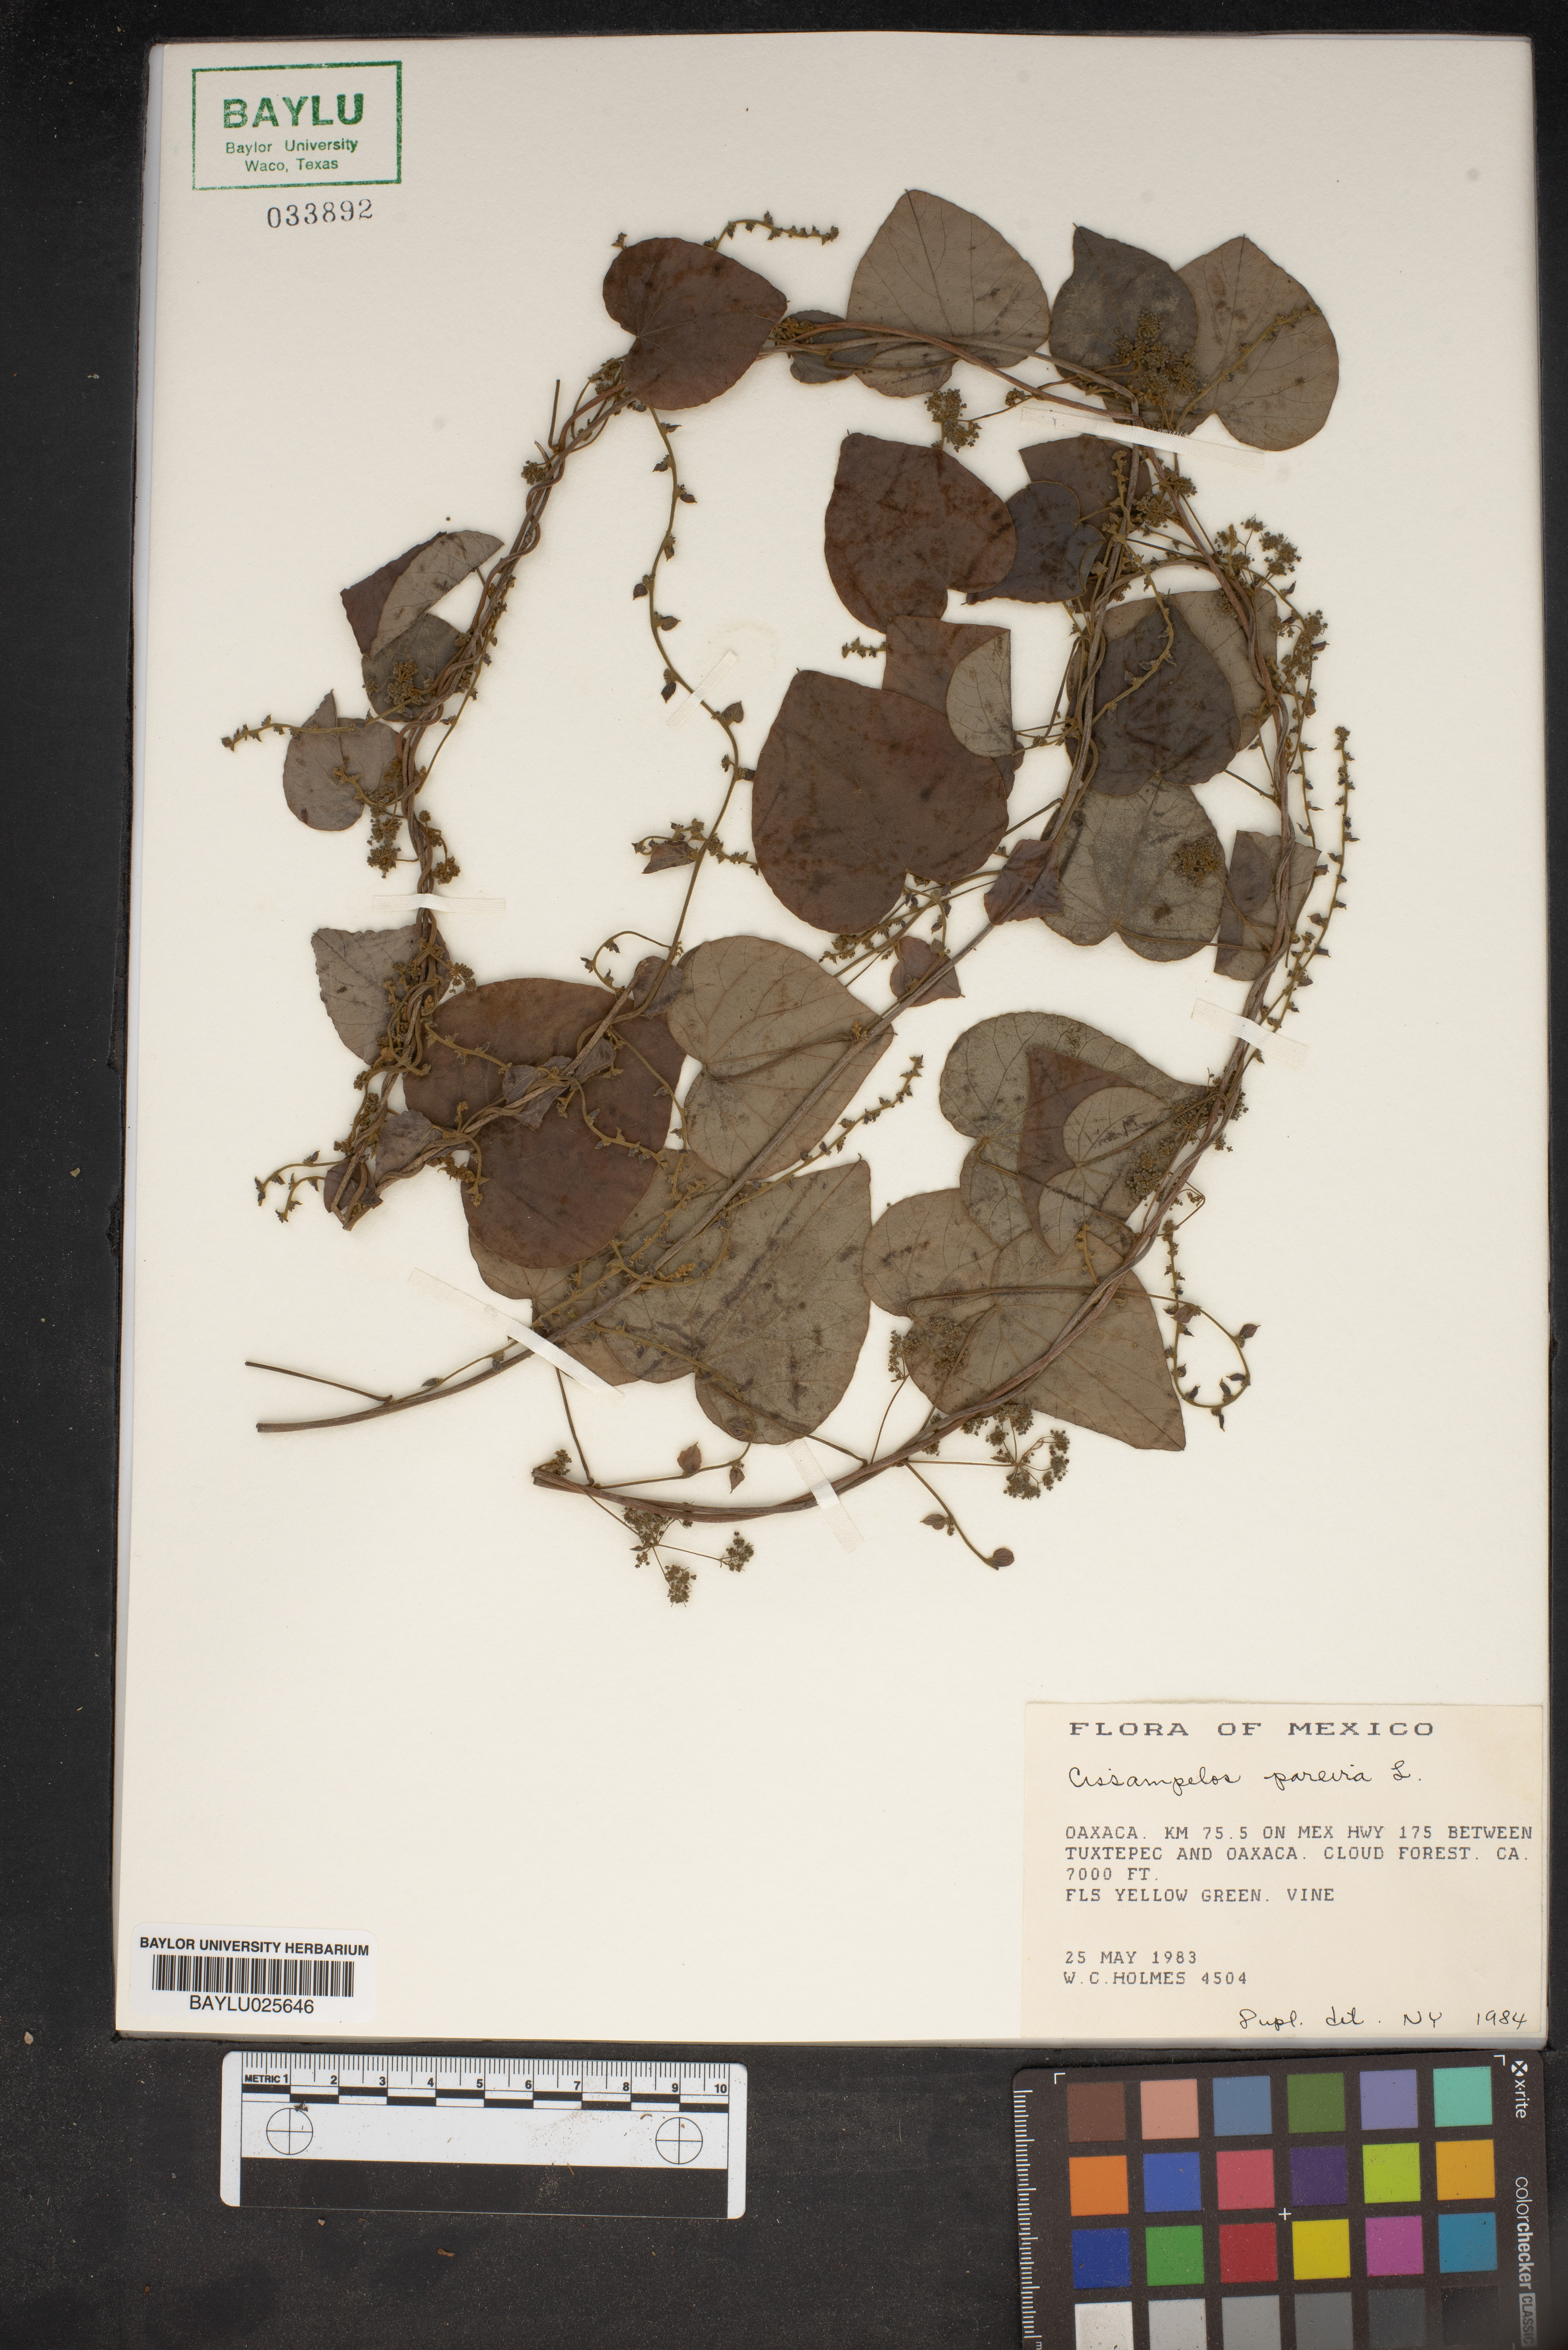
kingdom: Plantae
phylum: Tracheophyta
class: Magnoliopsida
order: Ranunculales
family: Menispermaceae
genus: Cissampelos
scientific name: Cissampelos pareira
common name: Velvetleaf
